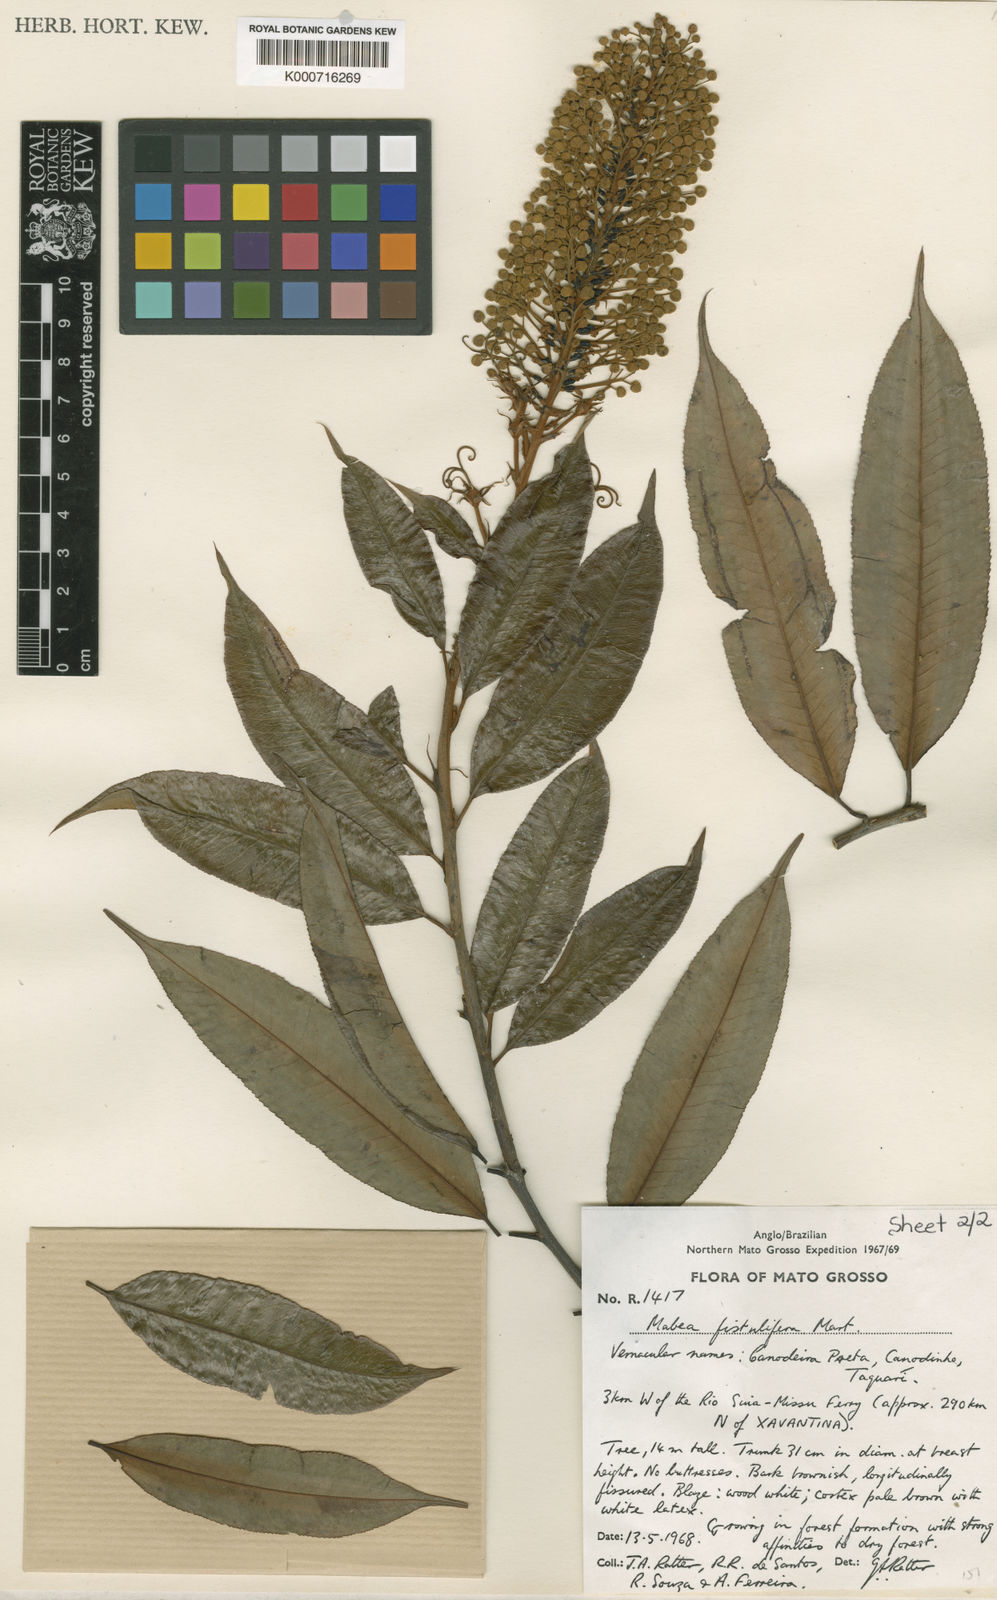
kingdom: Plantae
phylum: Tracheophyta
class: Magnoliopsida
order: Malpighiales
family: Euphorbiaceae
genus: Mabea
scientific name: Mabea fistulifera
